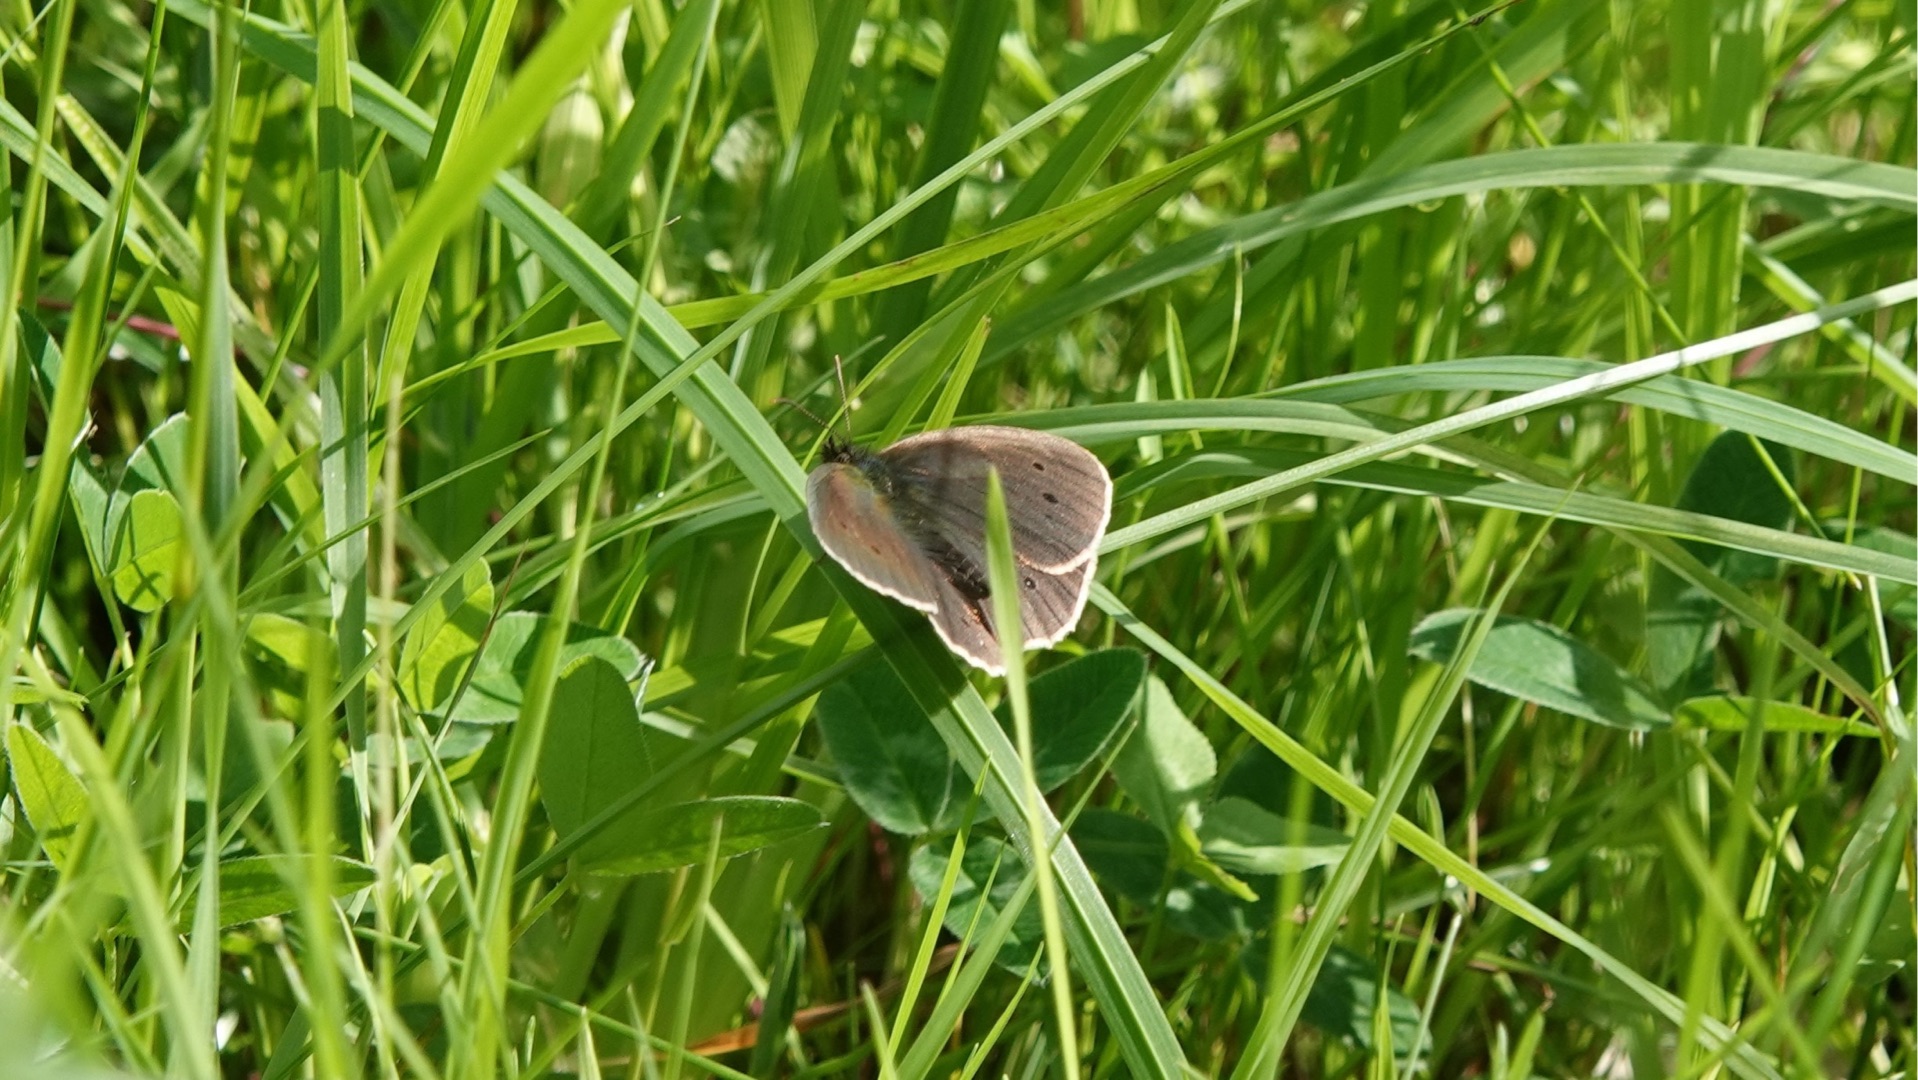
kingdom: Animalia
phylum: Arthropoda
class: Insecta
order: Lepidoptera
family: Nymphalidae
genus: Aphantopus
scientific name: Aphantopus hyperantus
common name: Engrandøje
